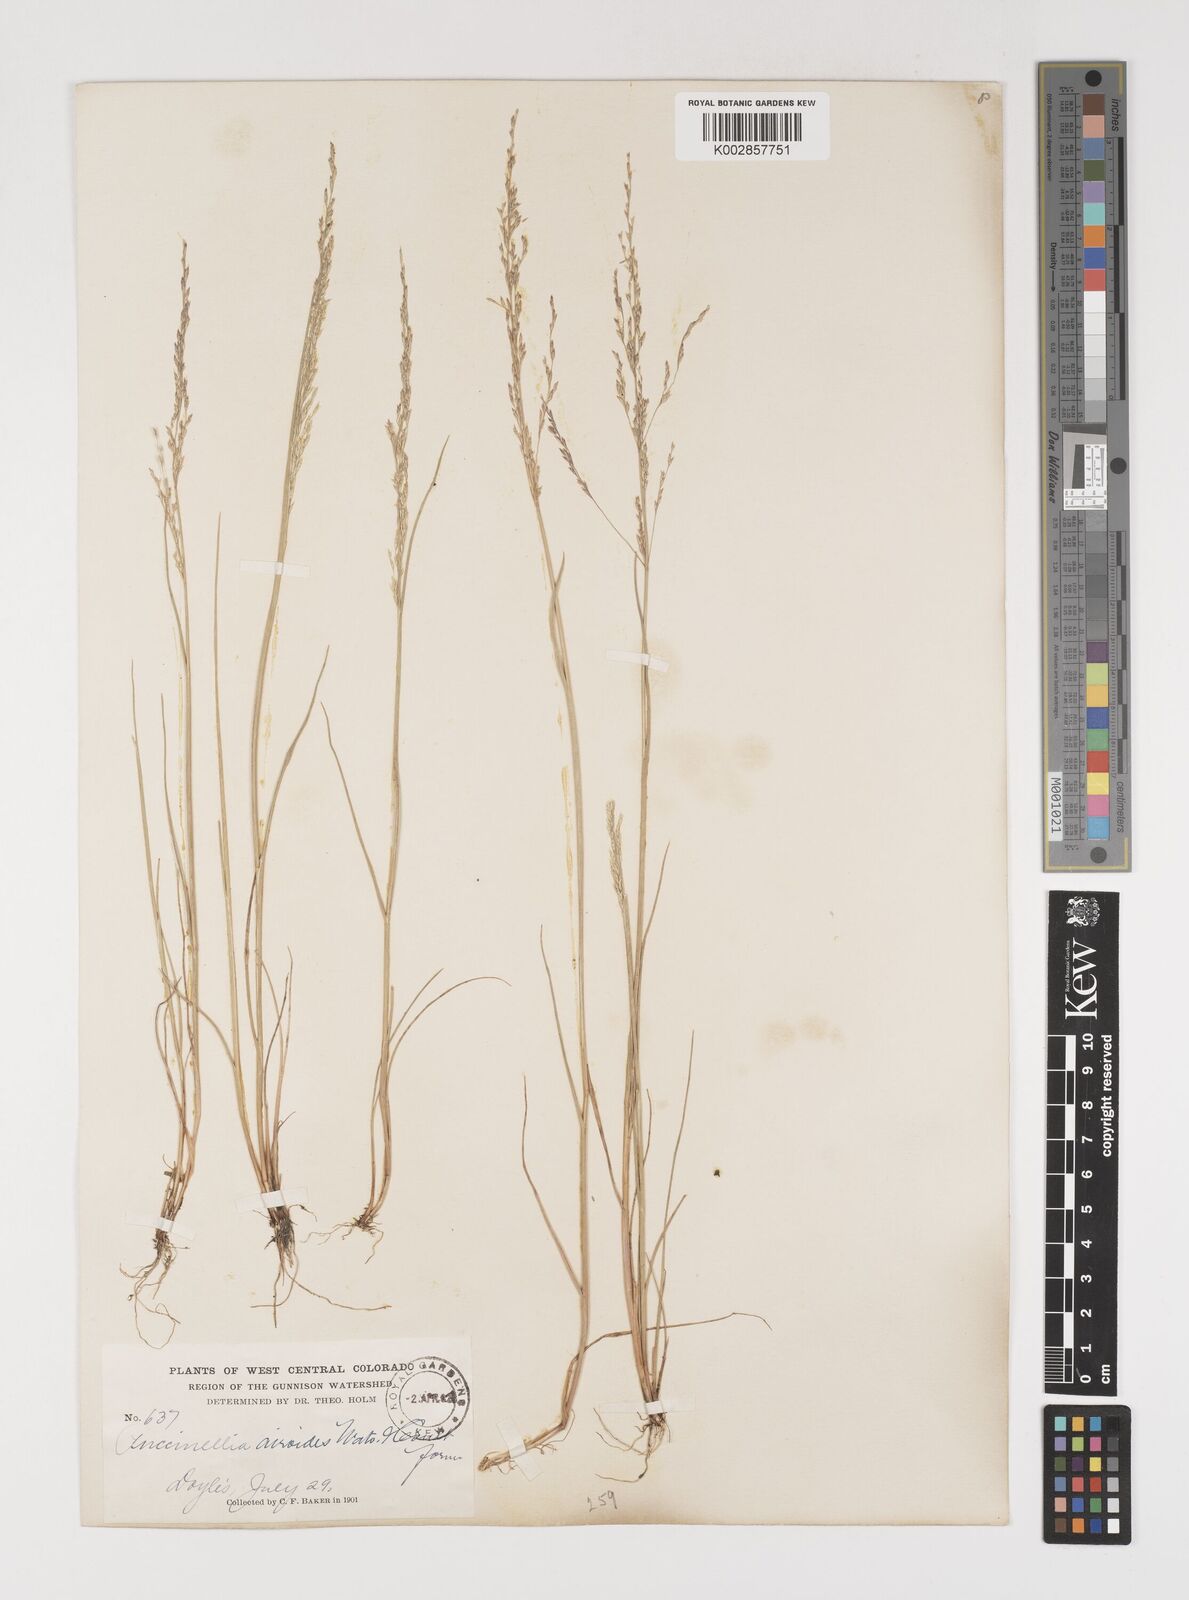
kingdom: Plantae
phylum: Tracheophyta
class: Liliopsida
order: Poales
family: Poaceae
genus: Puccinellia
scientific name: Puccinellia nuttalliana
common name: Nuttall's alkali grass
